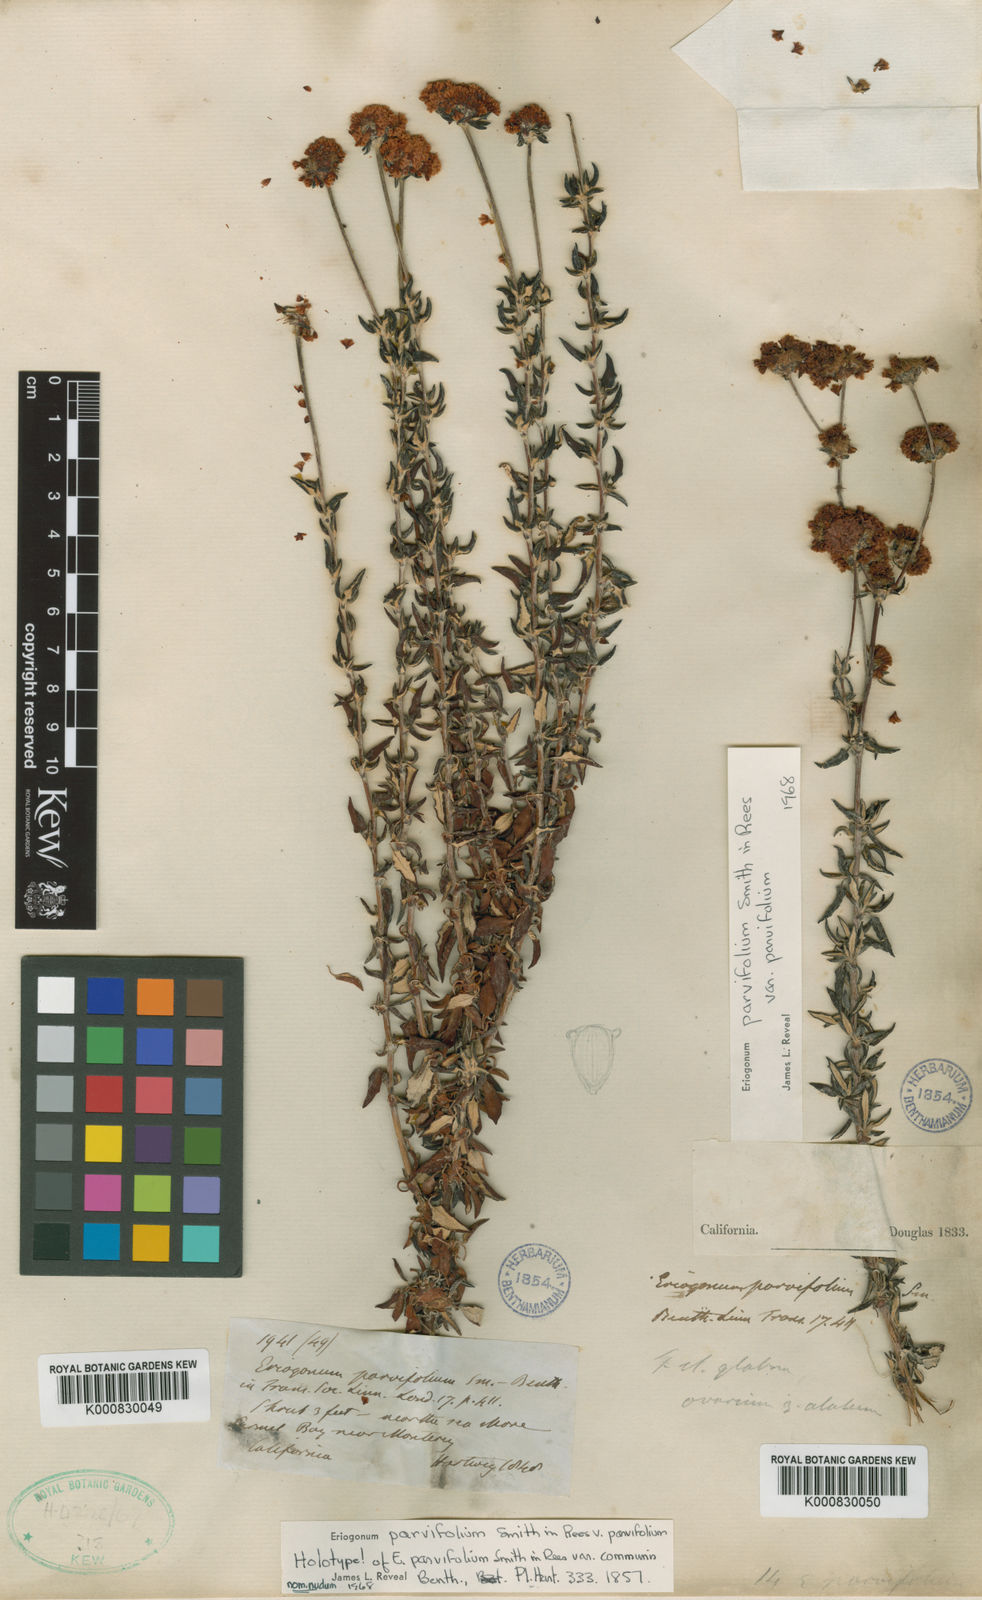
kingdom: Plantae
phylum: Tracheophyta
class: Magnoliopsida
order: Caryophyllales
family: Polygonaceae
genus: Eriogonum
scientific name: Eriogonum parvifolium
